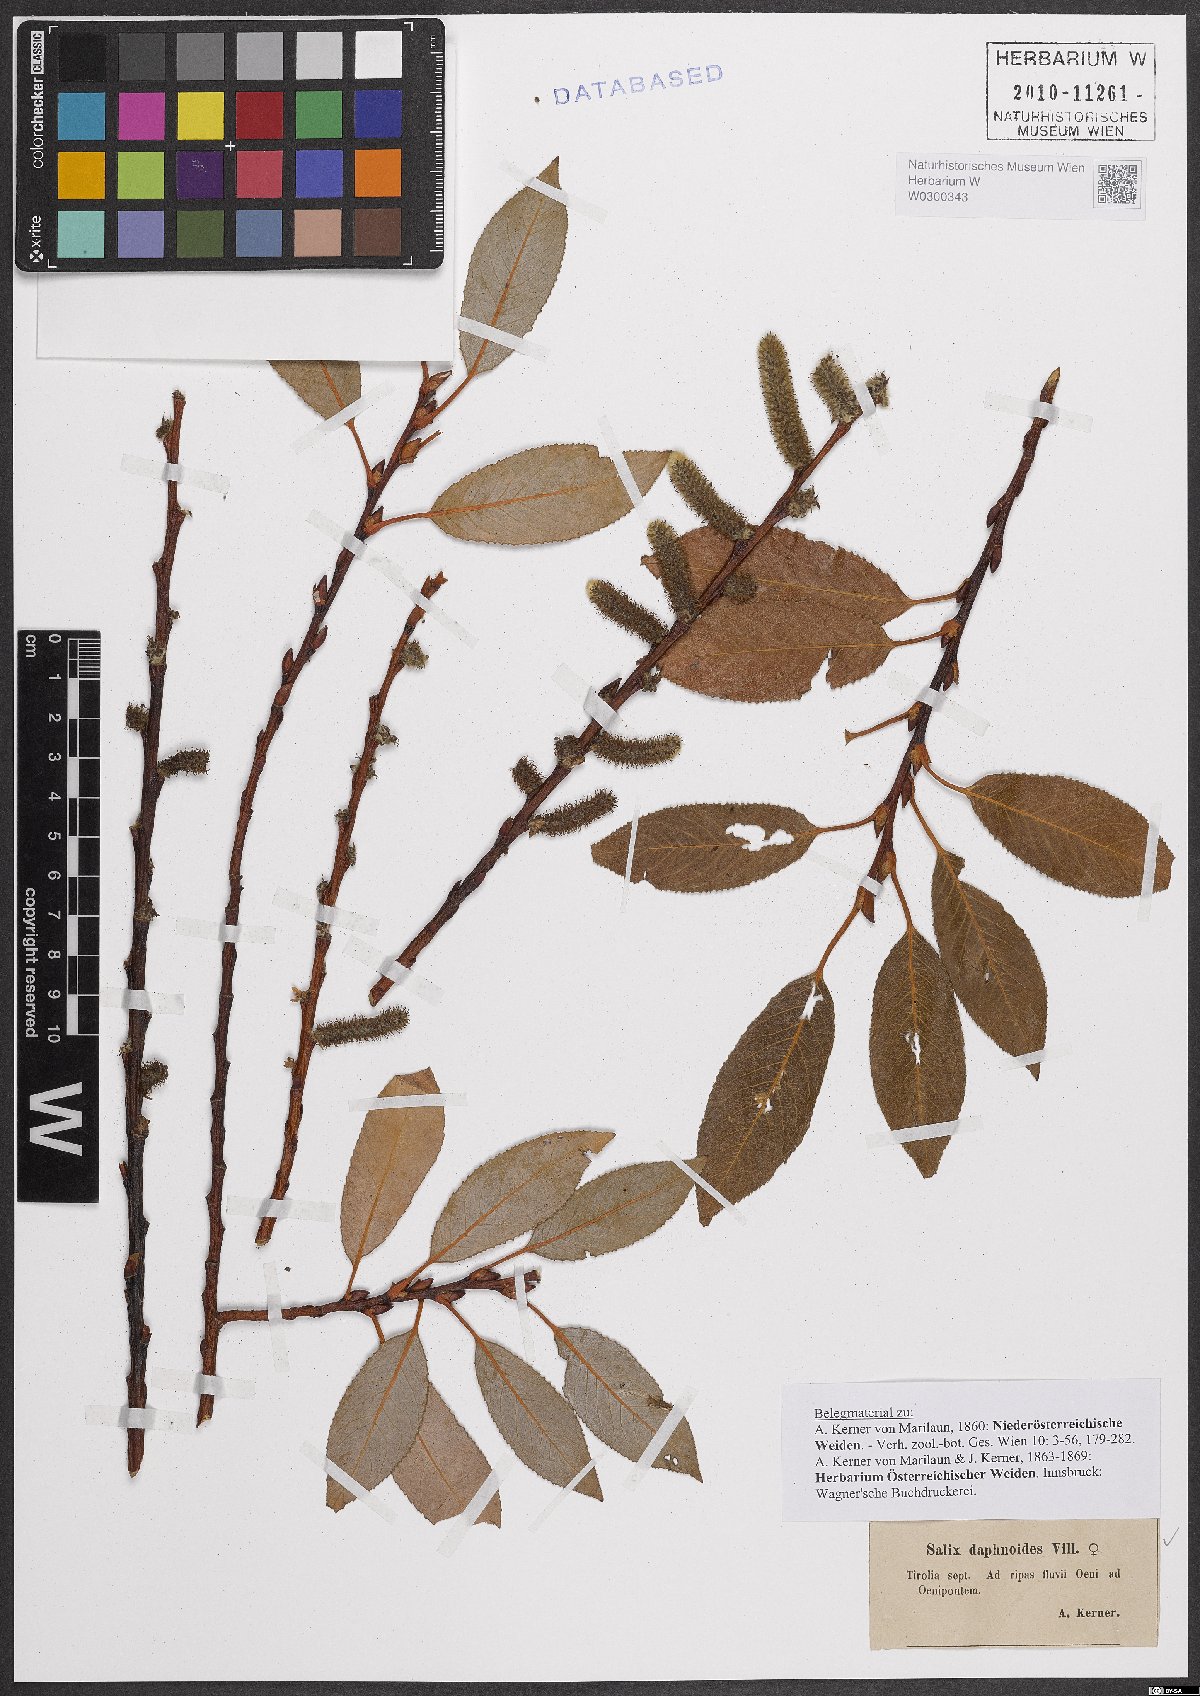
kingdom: Plantae
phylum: Tracheophyta
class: Magnoliopsida
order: Malpighiales
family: Salicaceae
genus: Salix
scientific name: Salix daphnoides
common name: European violet-willow
